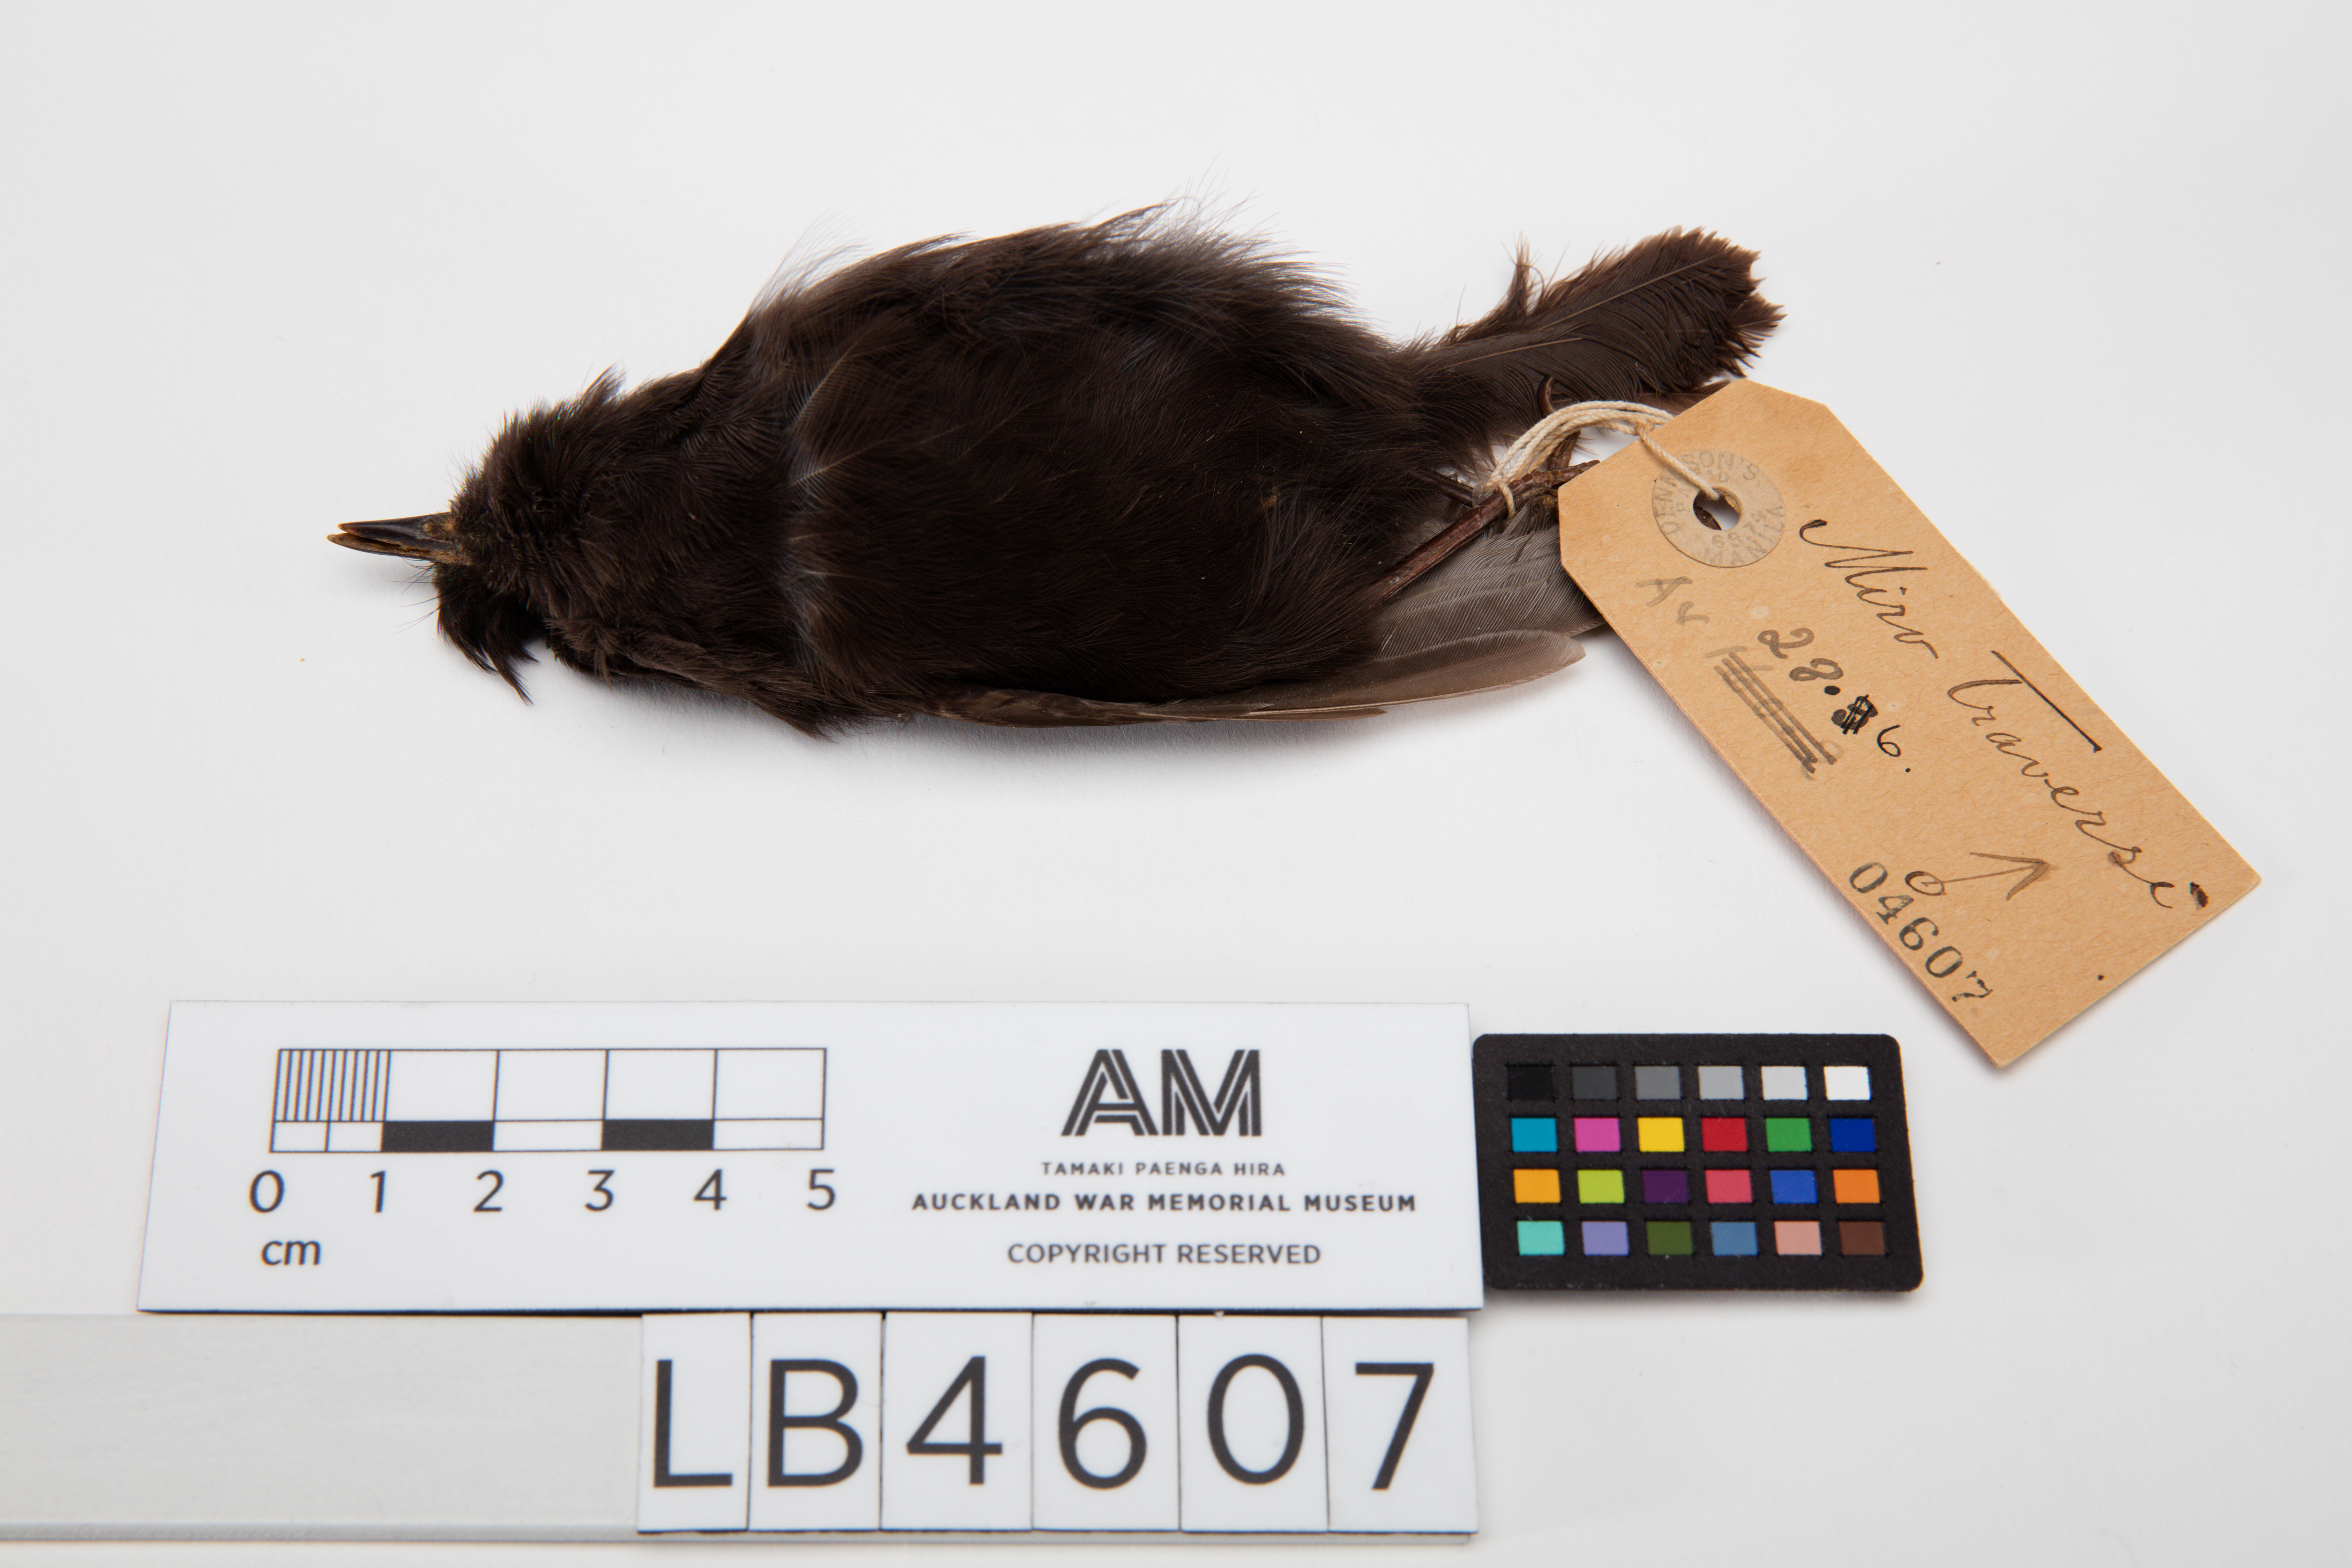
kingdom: Animalia
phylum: Chordata
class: Aves
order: Passeriformes
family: Petroicidae
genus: Petroica
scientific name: Petroica traversi
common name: Black robin
